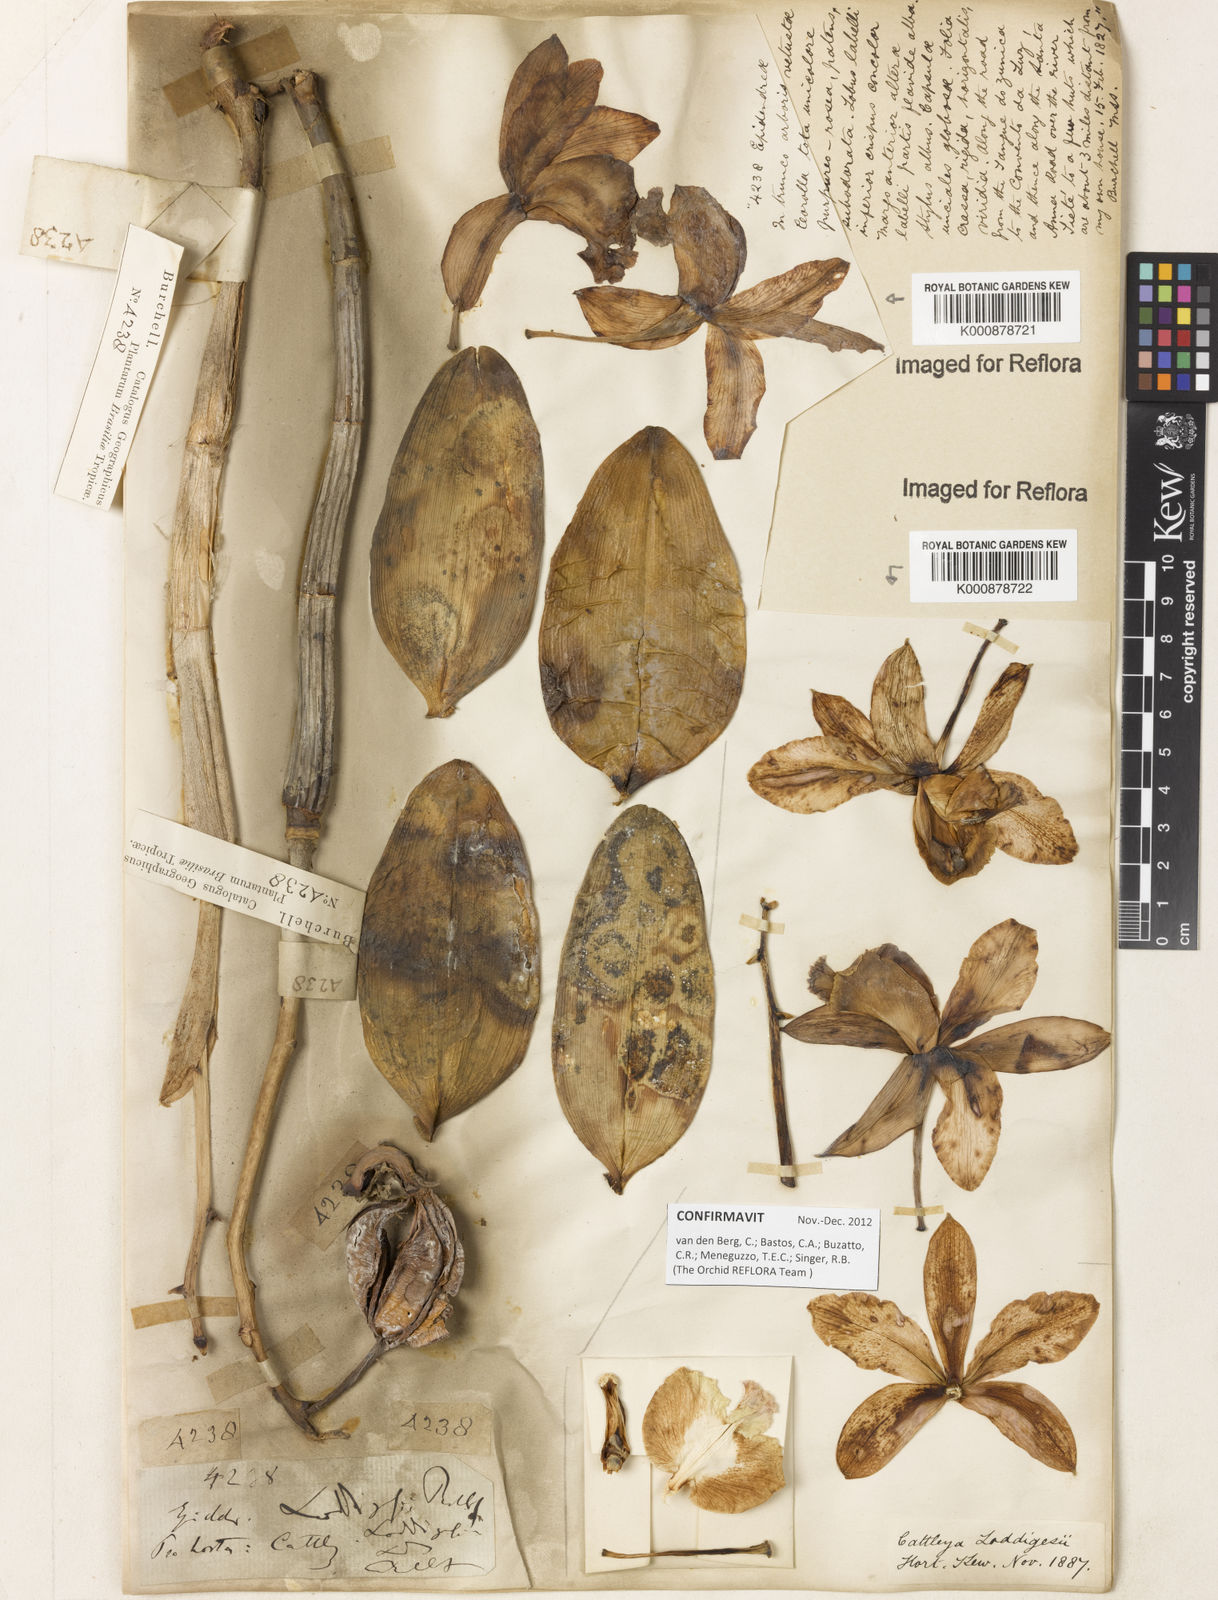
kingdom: Plantae
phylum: Tracheophyta
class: Liliopsida
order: Asparagales
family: Orchidaceae
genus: Cattleya
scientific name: Cattleya loddigesii
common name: Loddiges's cattleya
